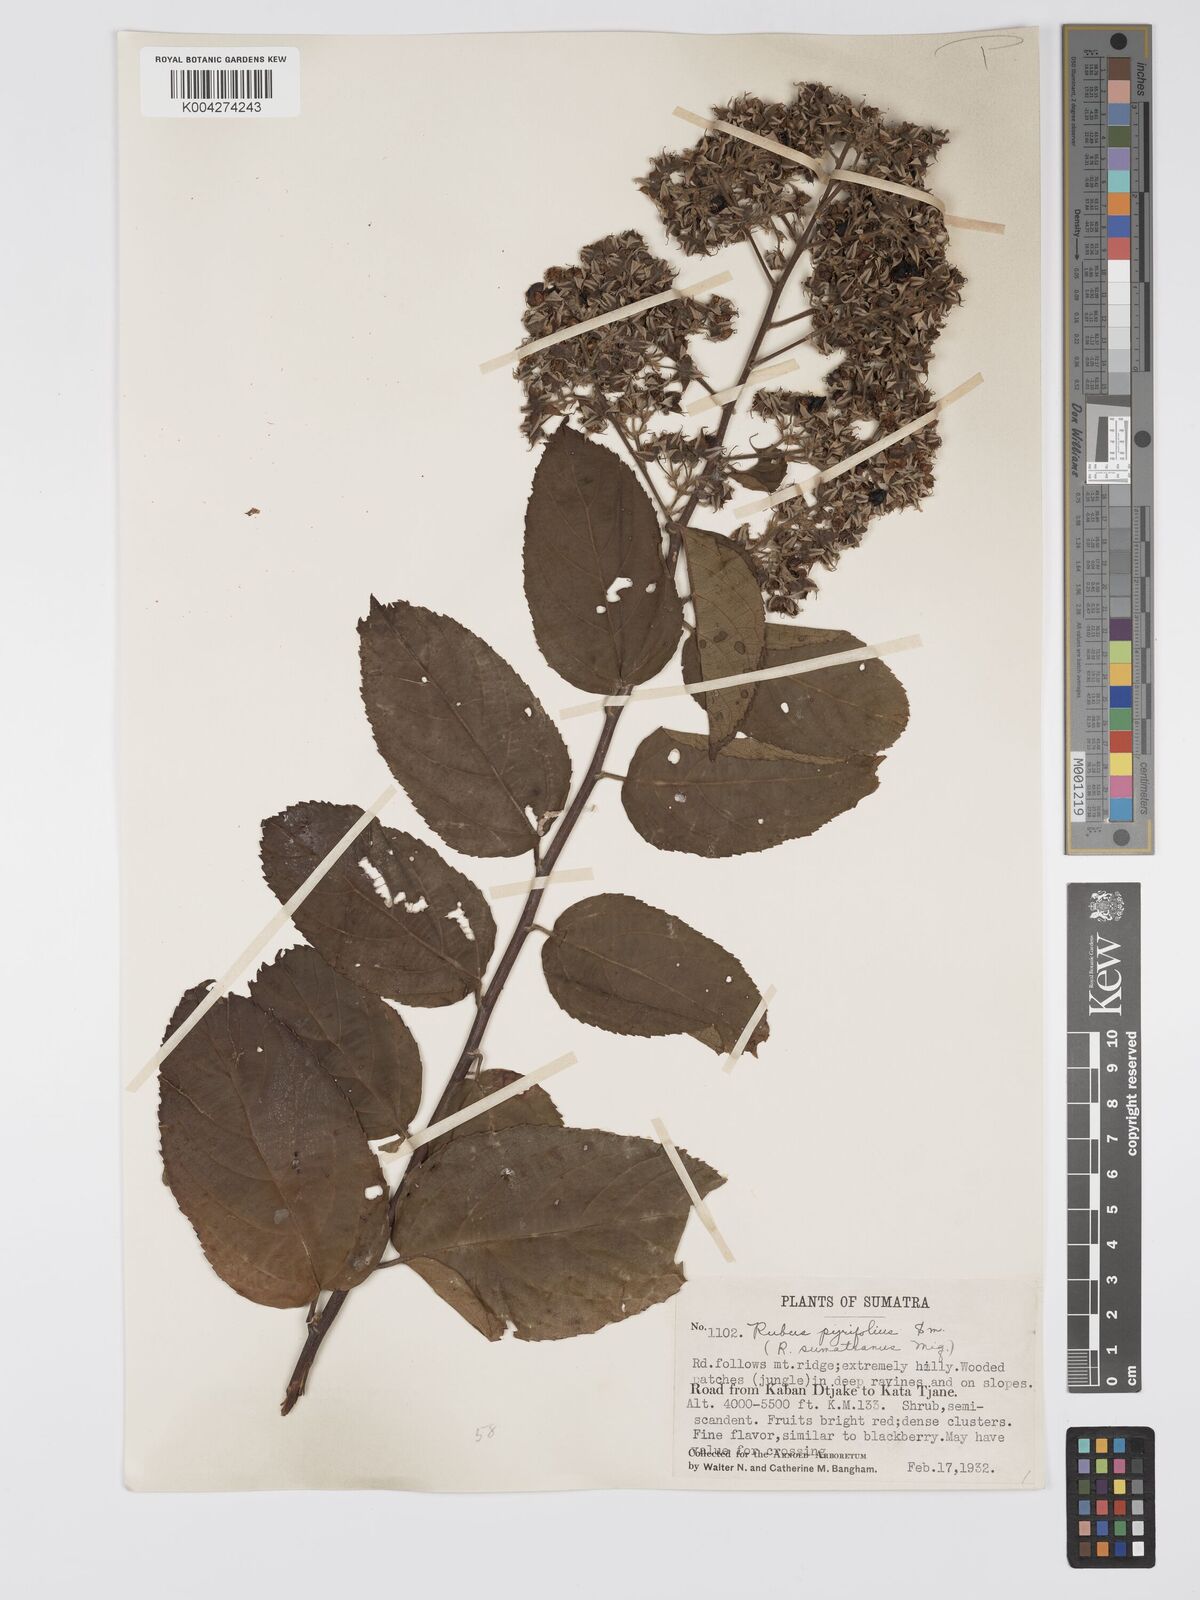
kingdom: Plantae
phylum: Tracheophyta
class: Magnoliopsida
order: Rosales
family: Rosaceae
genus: Rubus
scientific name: Rubus pirifolius
